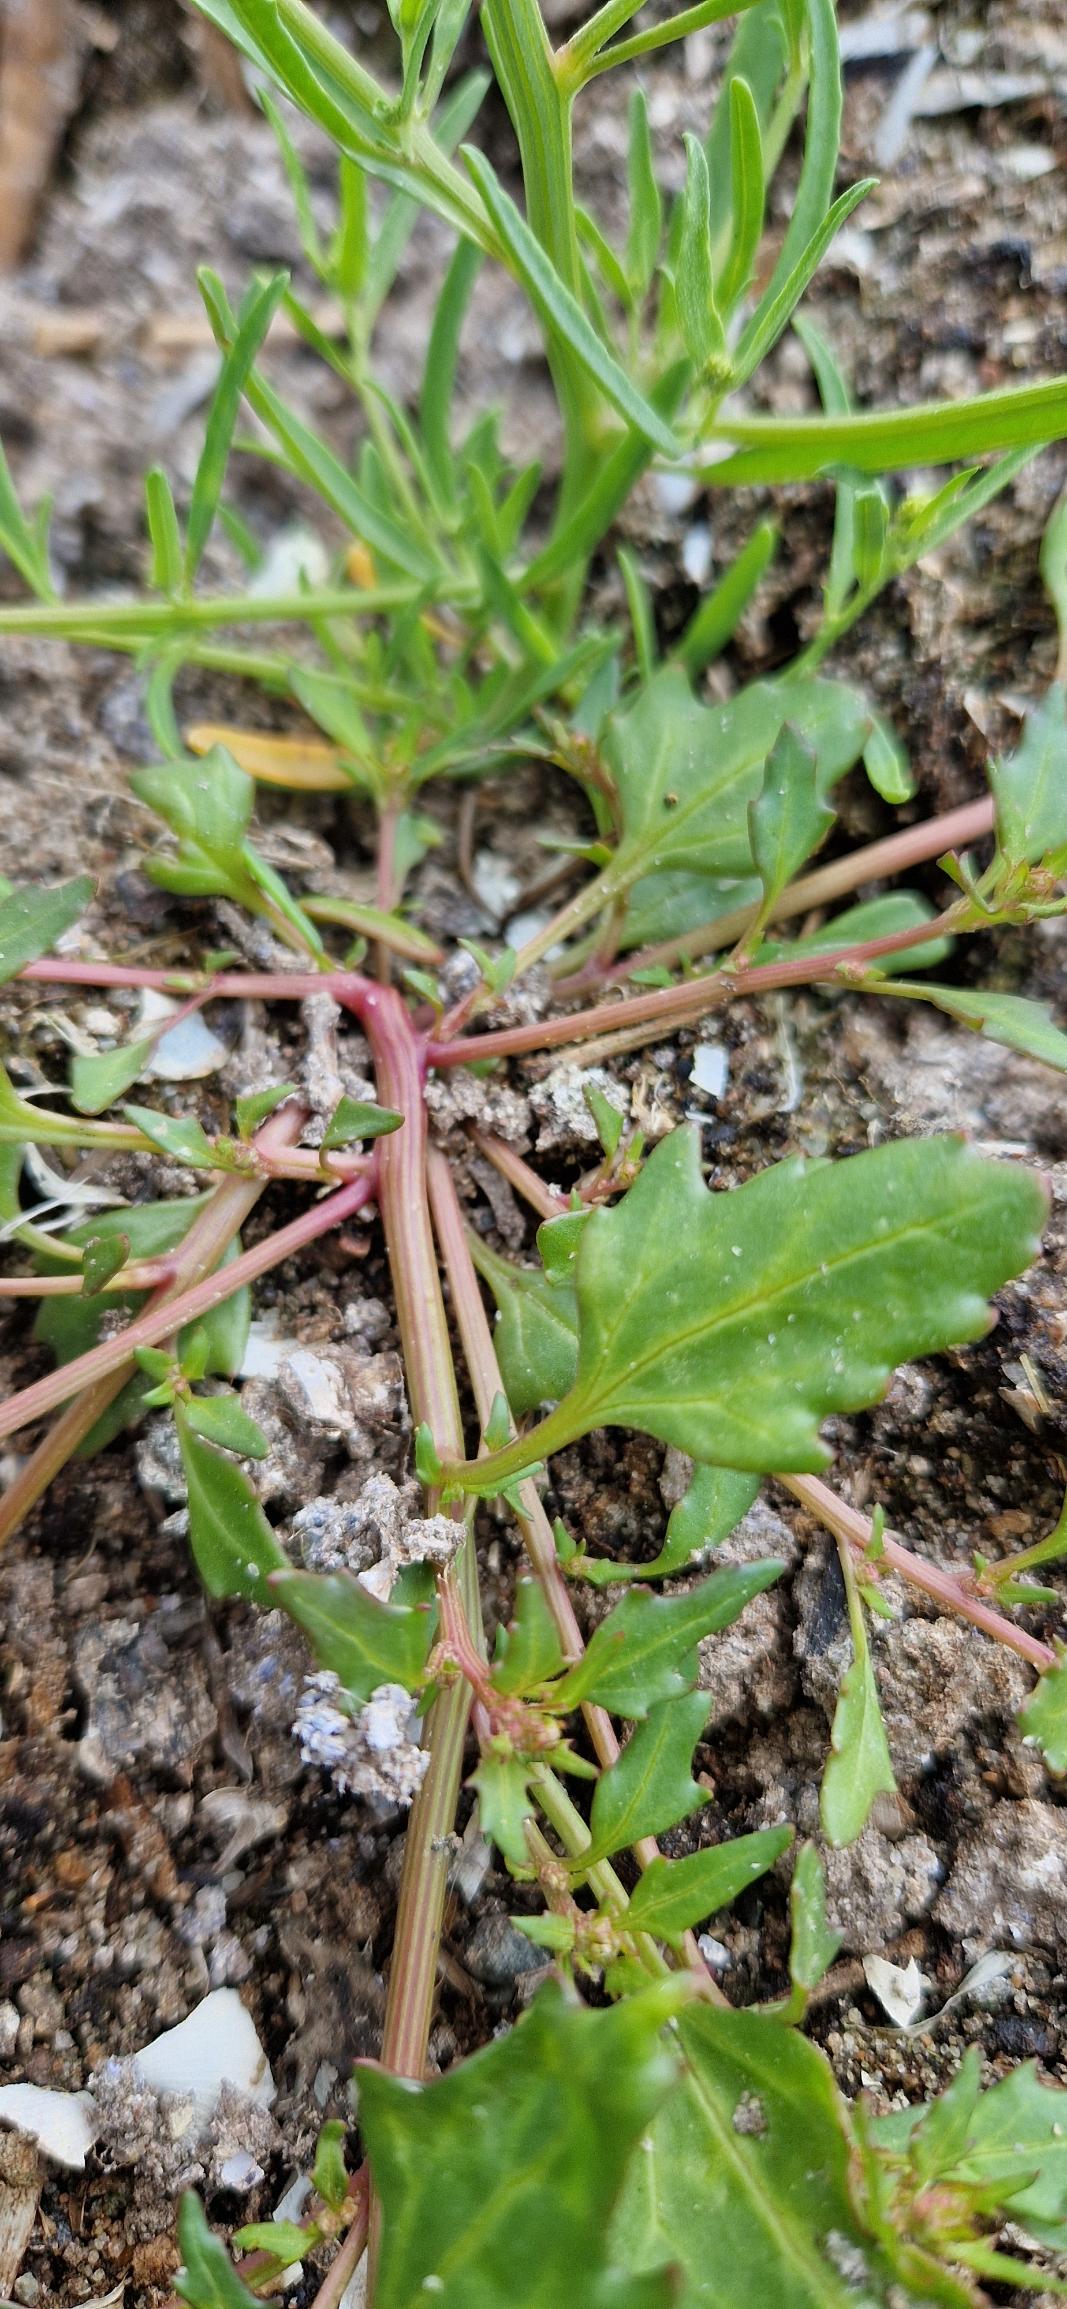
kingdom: Plantae
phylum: Tracheophyta
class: Magnoliopsida
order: Caryophyllales
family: Amaranthaceae
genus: Oxybasis
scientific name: Oxybasis rubra
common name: Rød gåsefod
